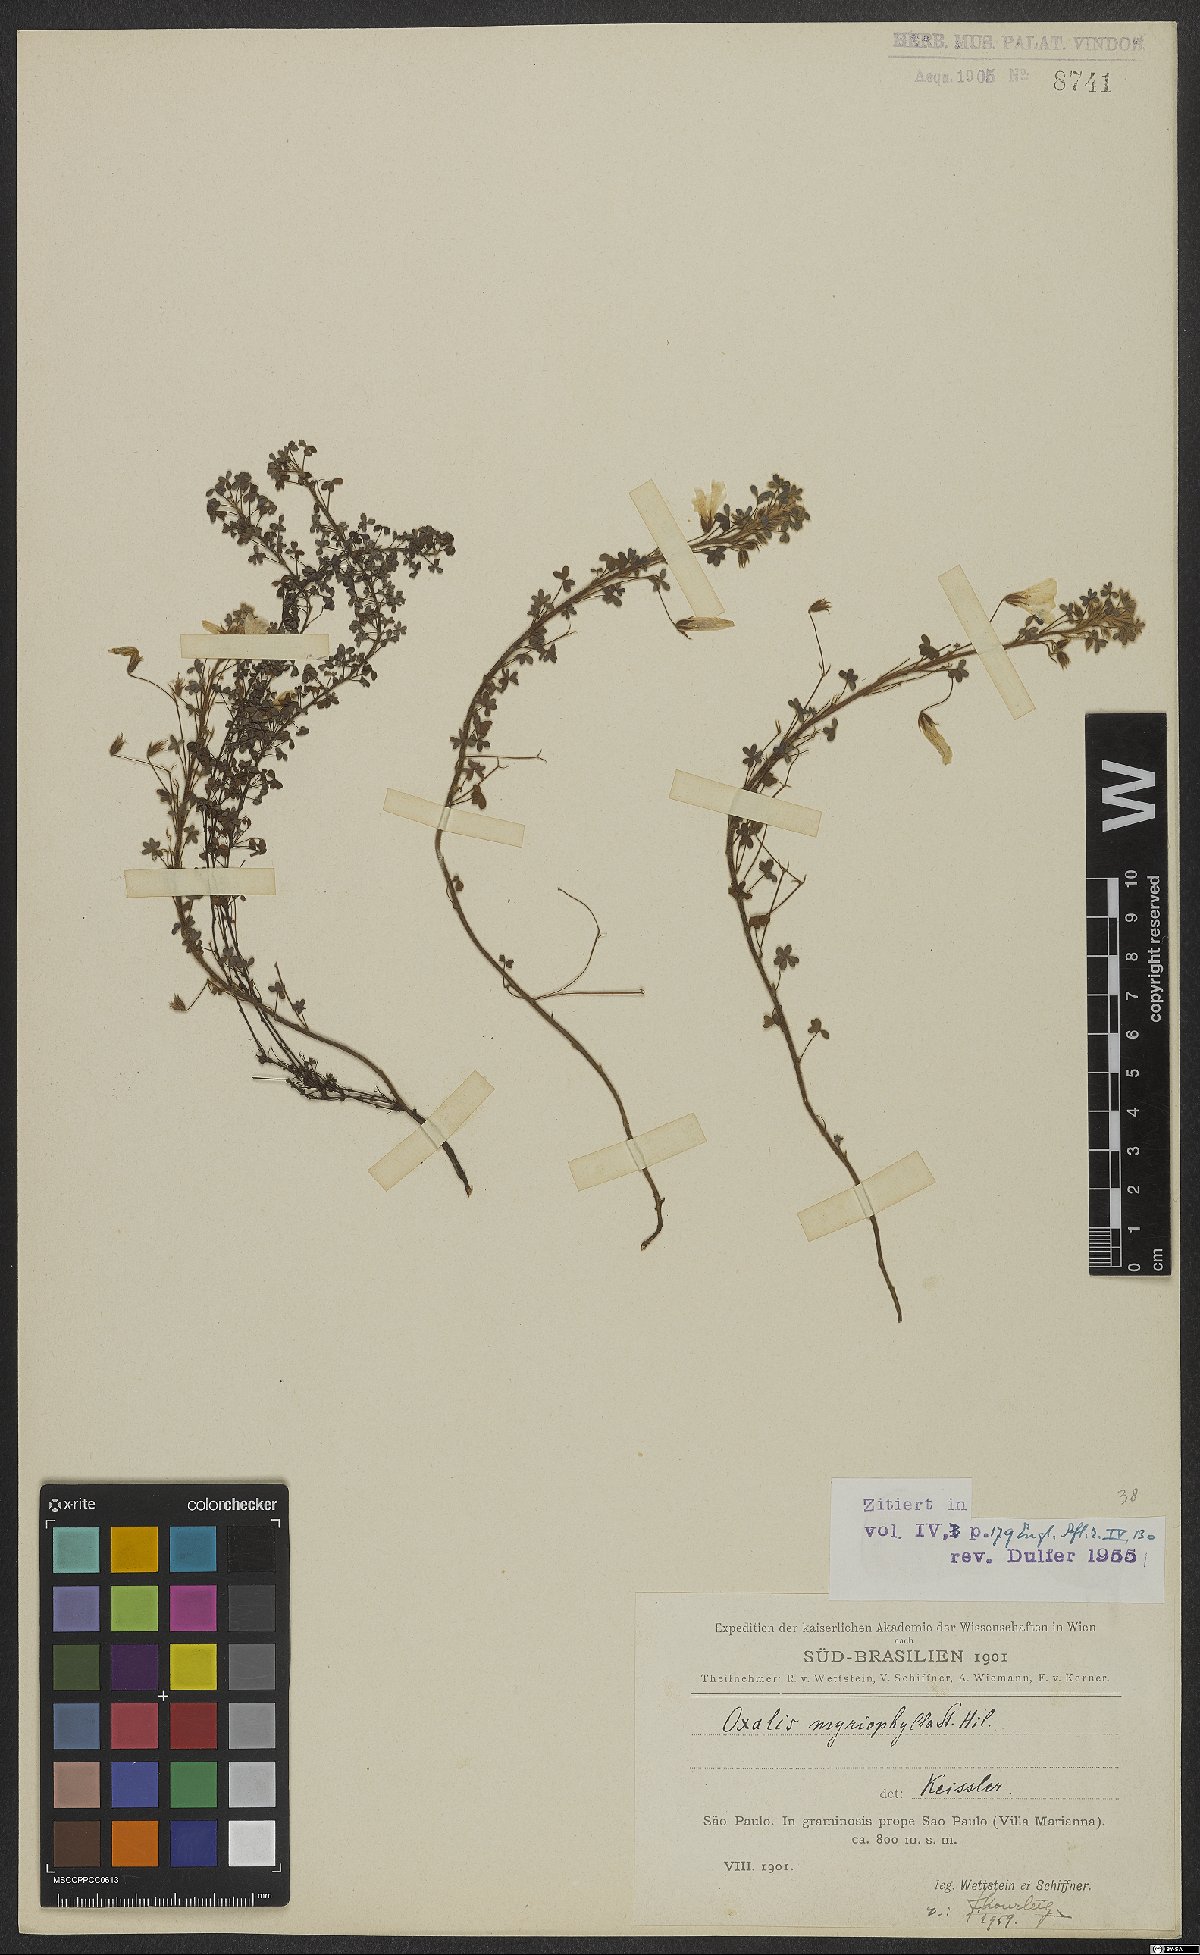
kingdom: Plantae
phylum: Tracheophyta
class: Magnoliopsida
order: Oxalidales
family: Oxalidaceae
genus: Oxalis
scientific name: Oxalis myriophylla
